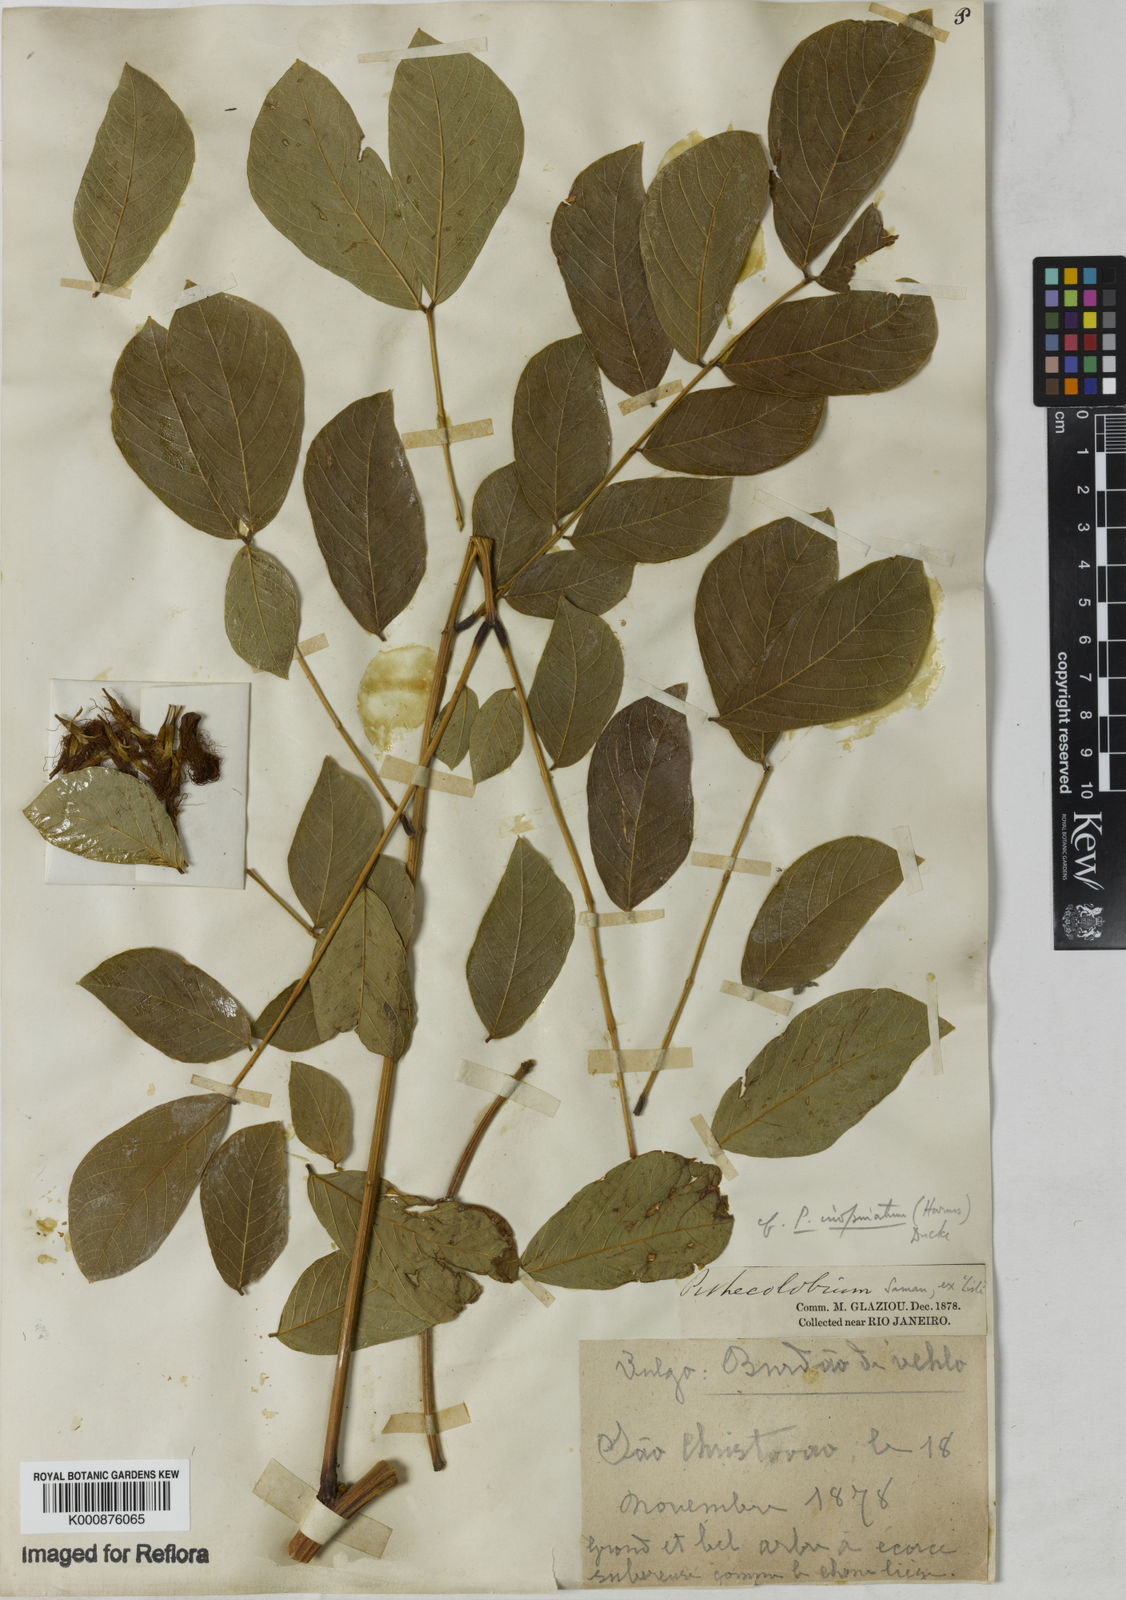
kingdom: Plantae
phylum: Tracheophyta
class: Magnoliopsida
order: Fabales
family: Fabaceae
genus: Samanea
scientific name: Samanea inopinata
